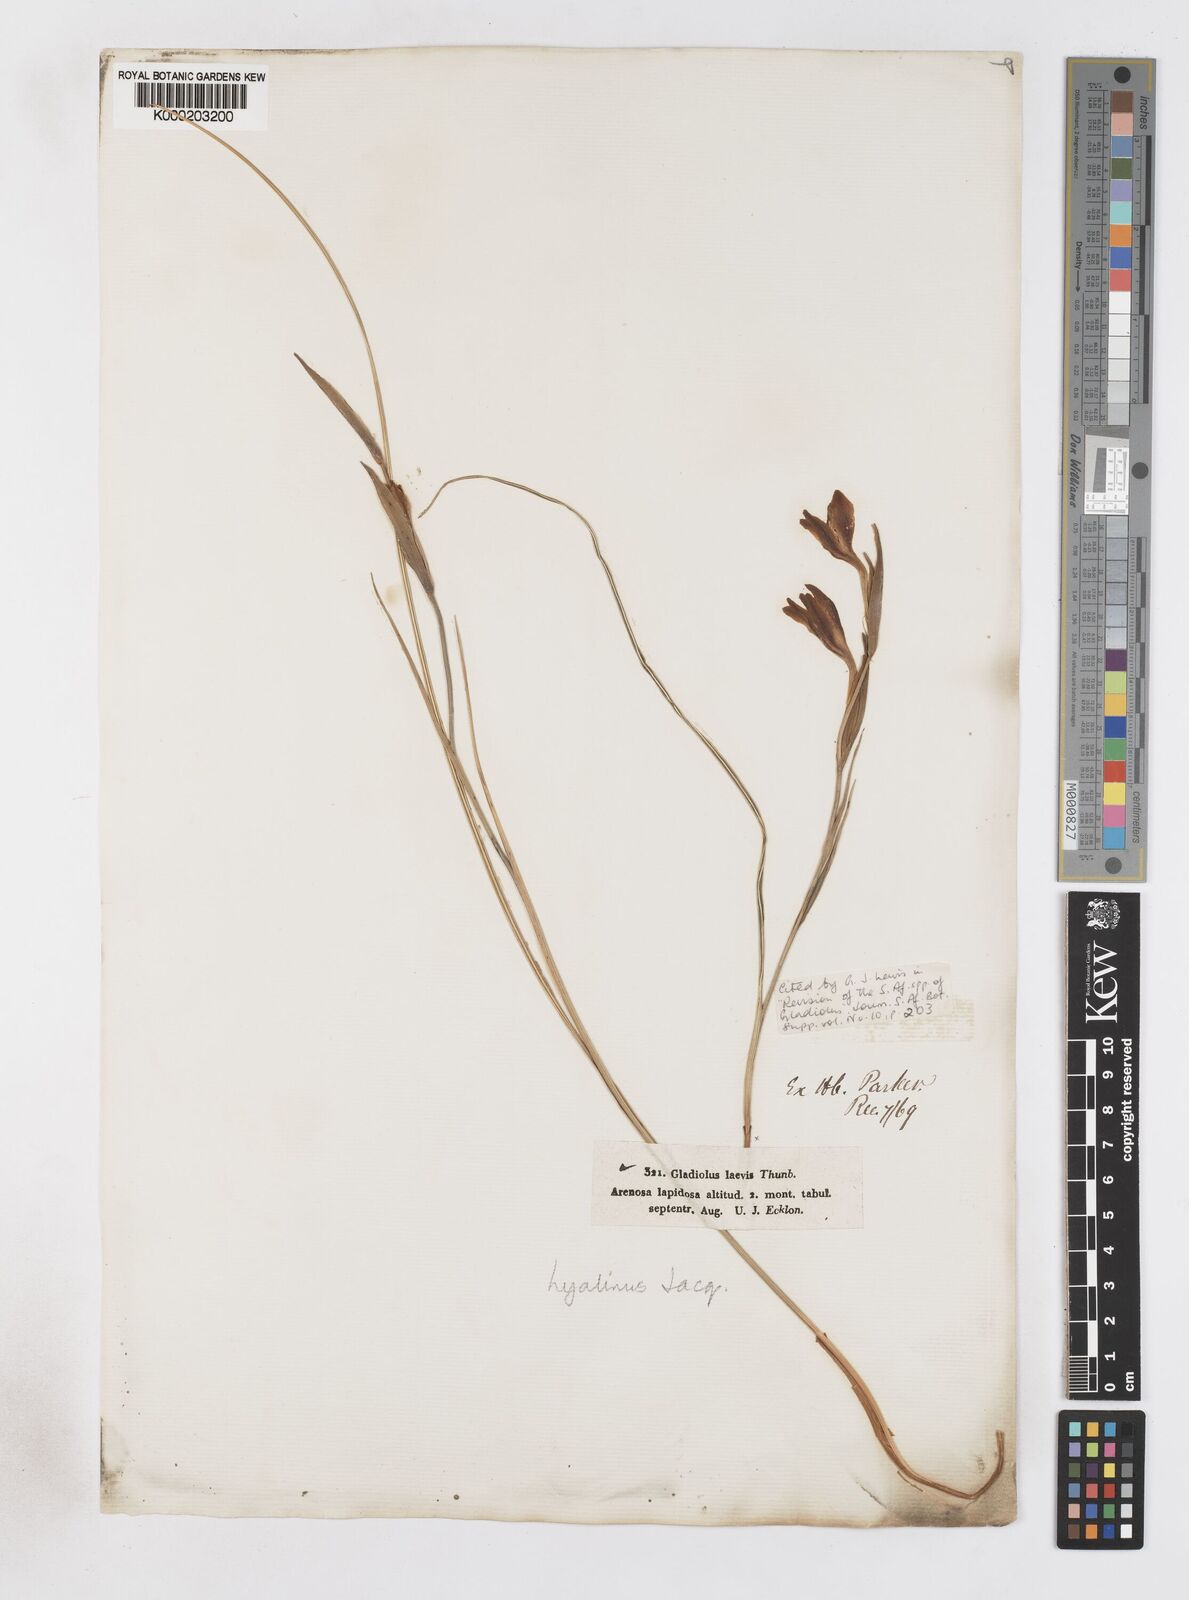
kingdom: Plantae
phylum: Tracheophyta
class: Liliopsida
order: Asparagales
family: Iridaceae
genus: Gladiolus
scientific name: Gladiolus hyalinus
